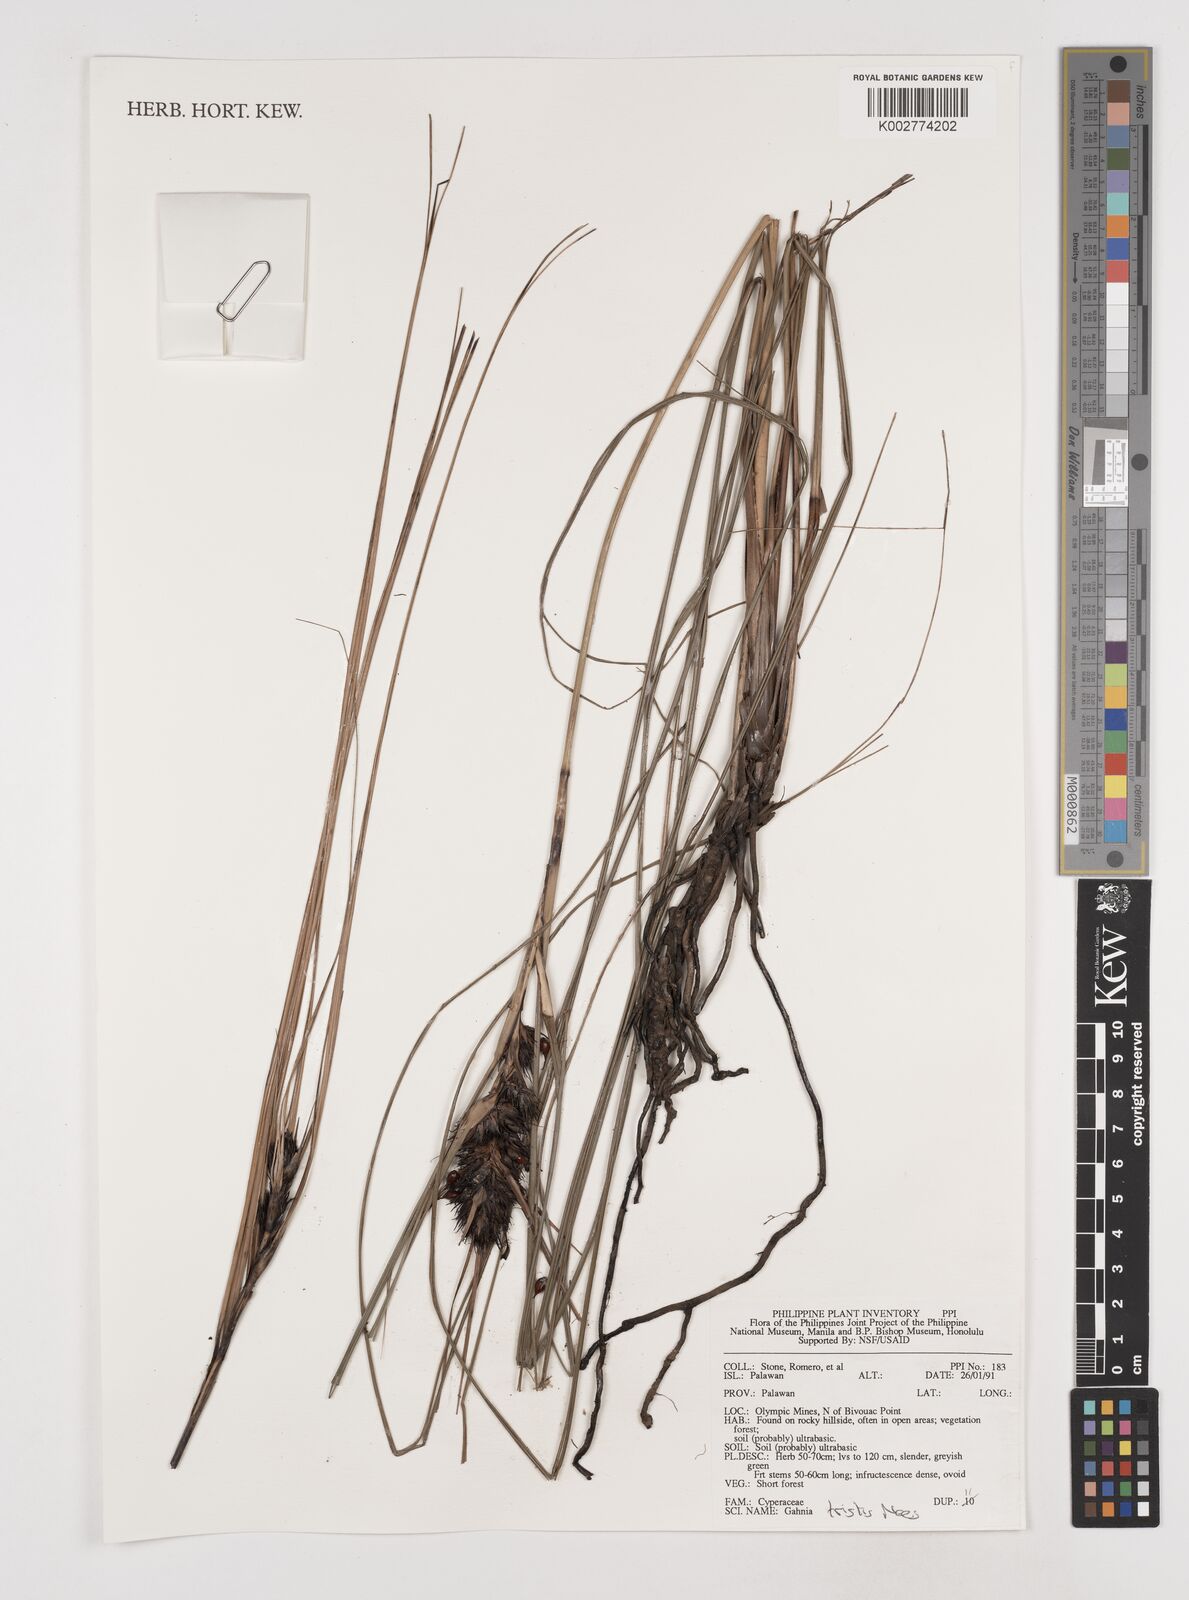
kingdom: Plantae
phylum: Tracheophyta
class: Liliopsida
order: Poales
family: Cyperaceae
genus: Gahnia
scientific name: Gahnia tristis
